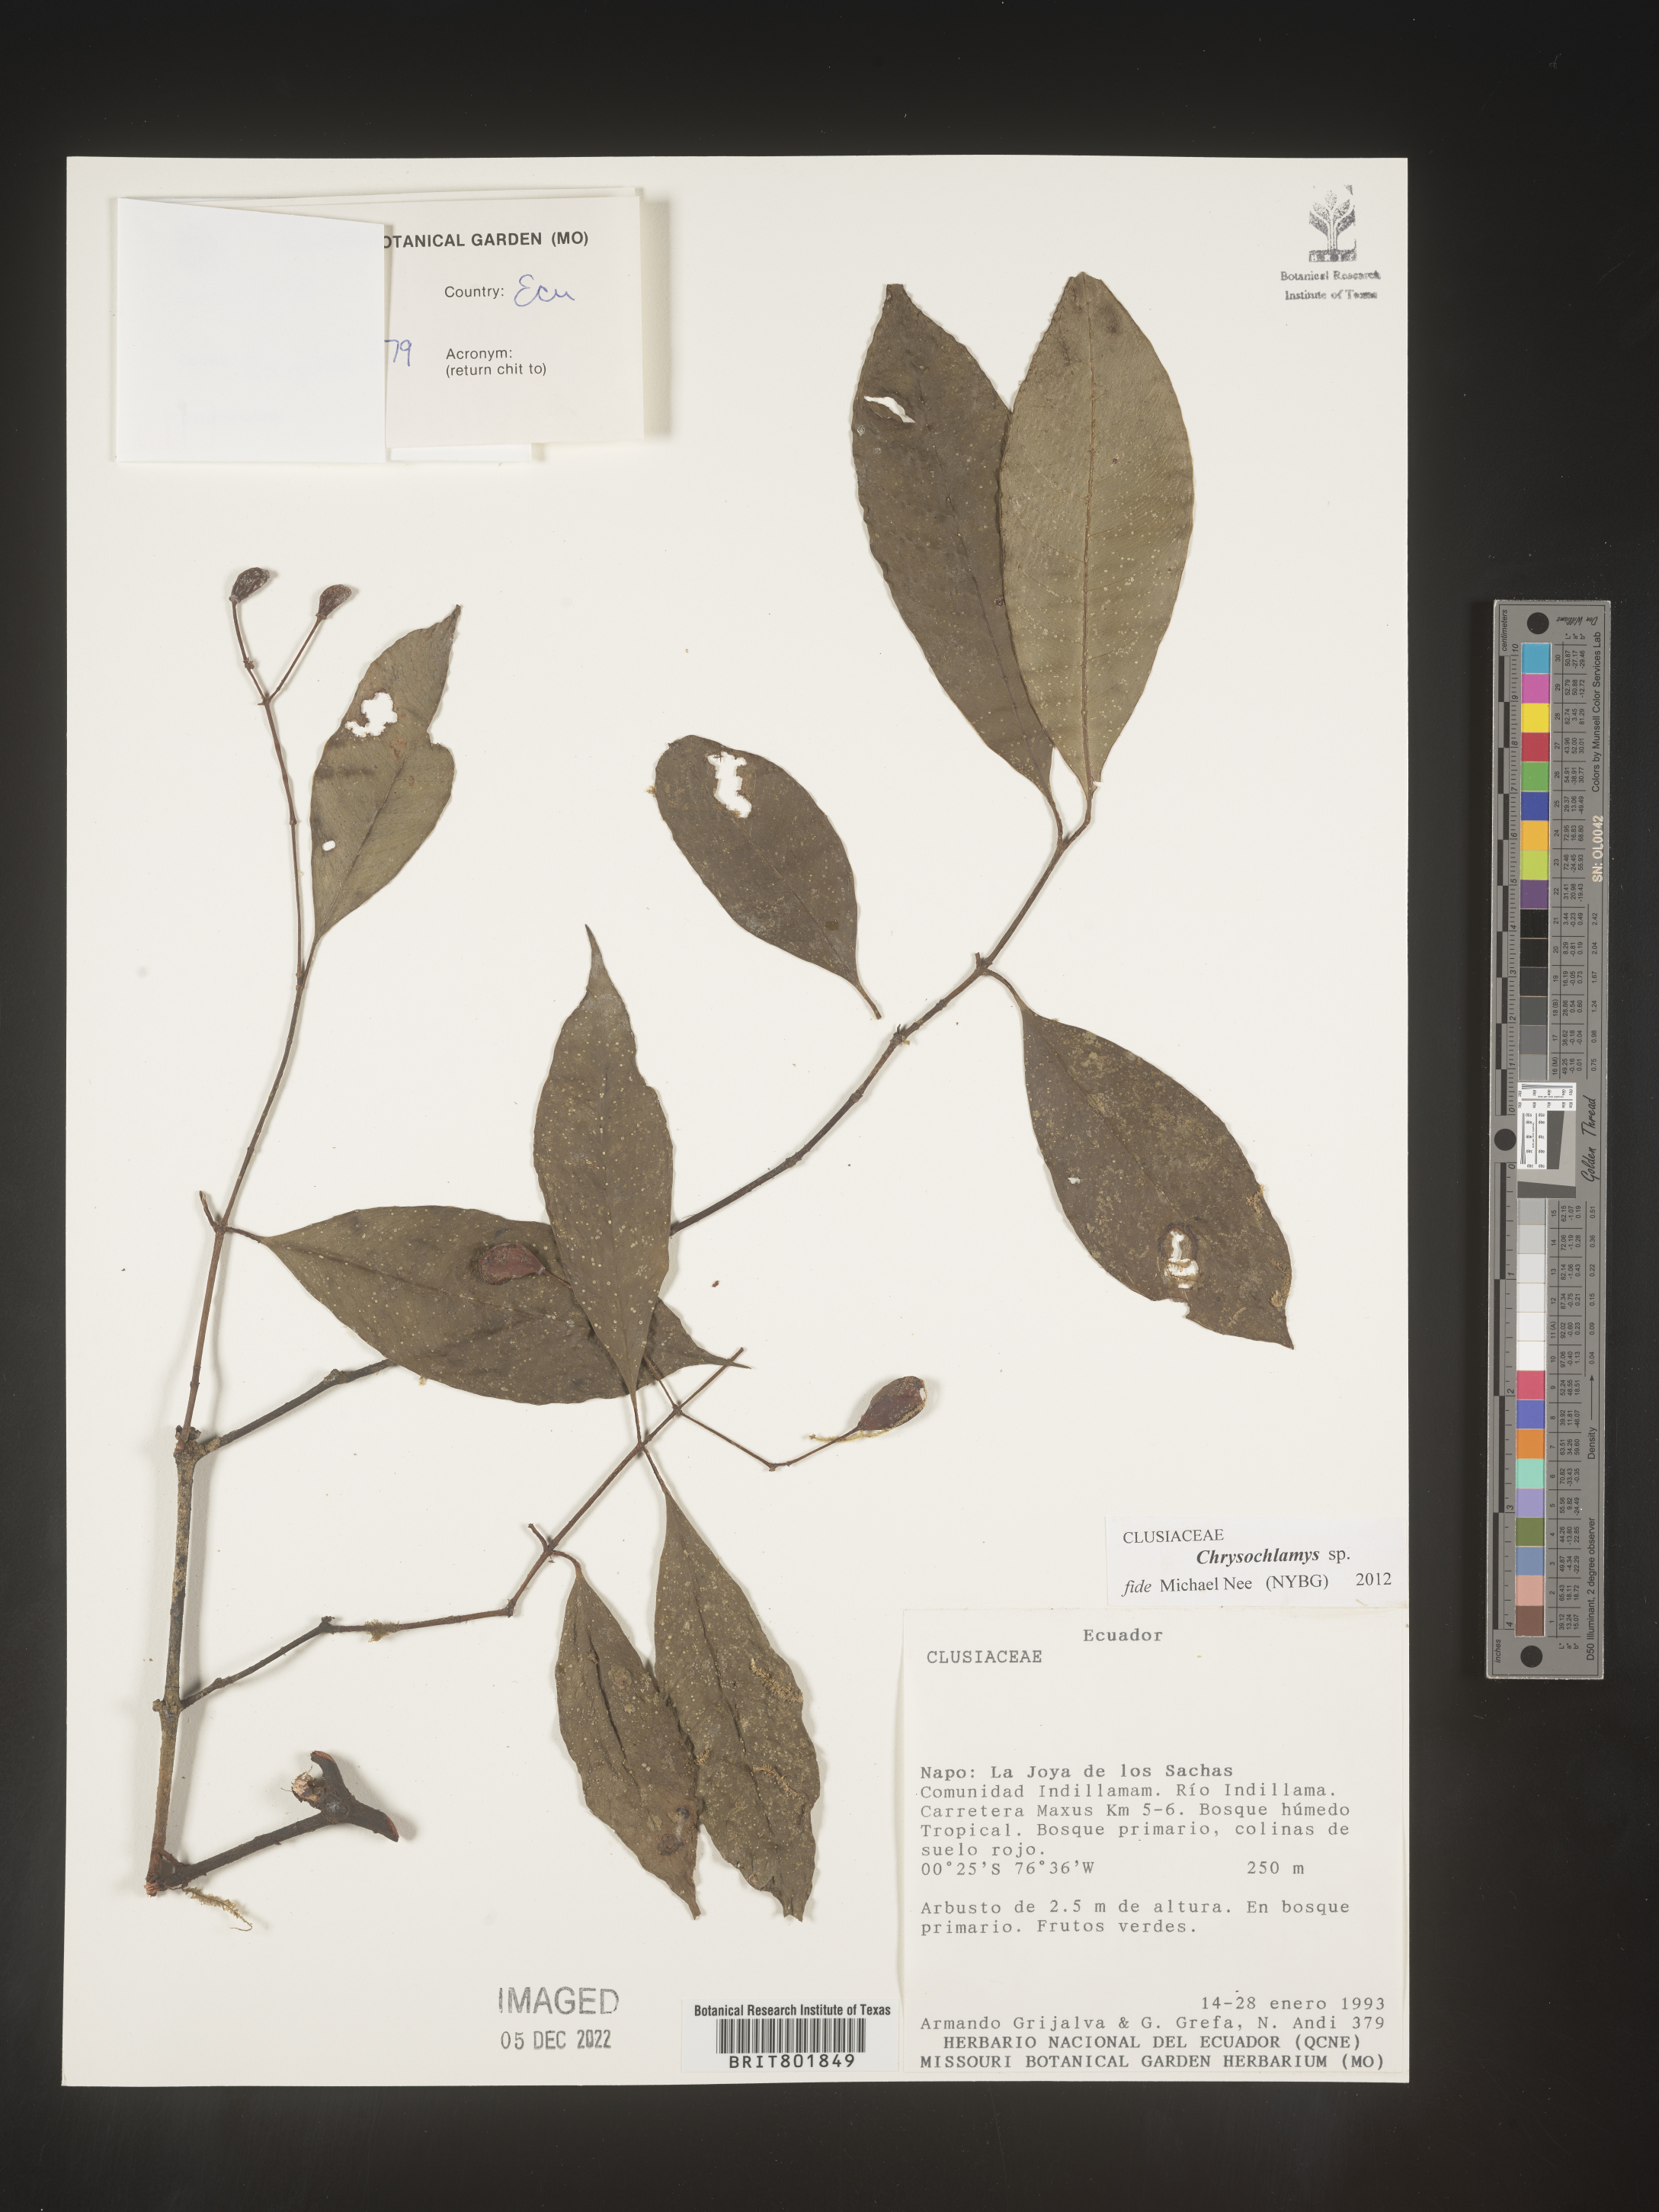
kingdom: Plantae
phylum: Tracheophyta
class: Magnoliopsida
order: Malpighiales
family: Clusiaceae
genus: Chrysochlamys
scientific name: Chrysochlamys
